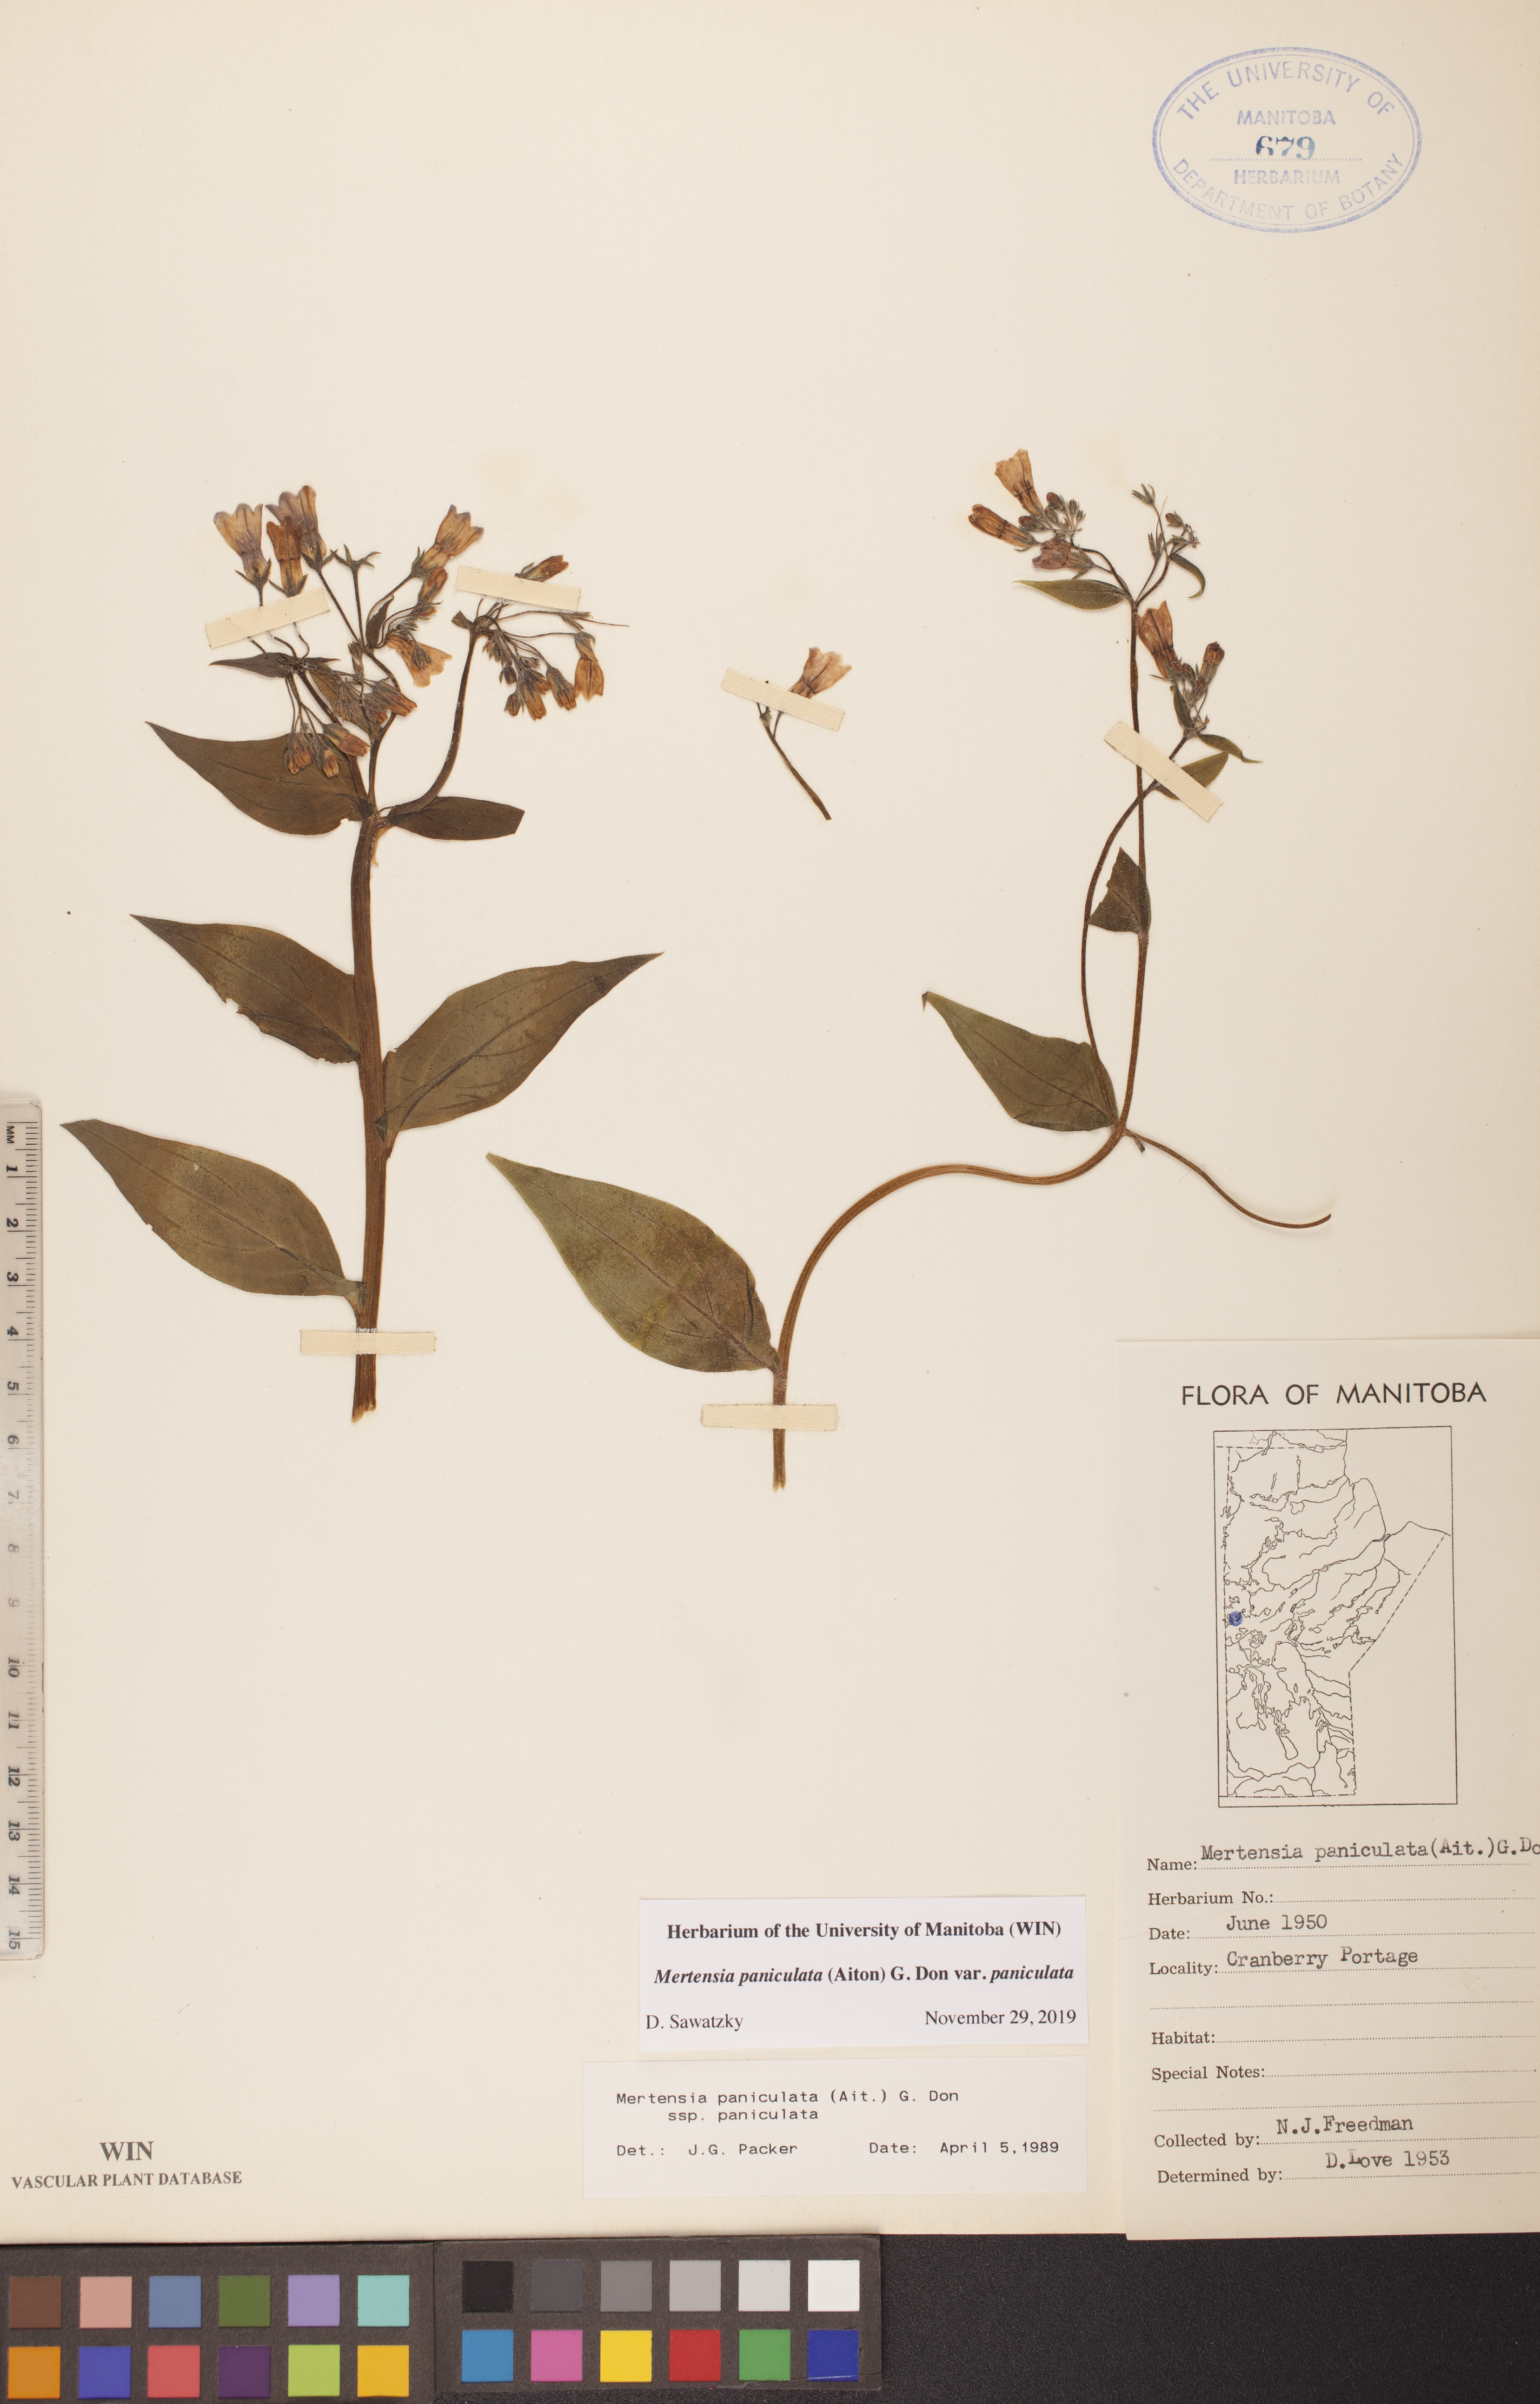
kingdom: Plantae
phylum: Tracheophyta
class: Magnoliopsida
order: Boraginales
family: Boraginaceae
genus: Mertensia
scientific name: Mertensia paniculata
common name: Panicled bluebells
